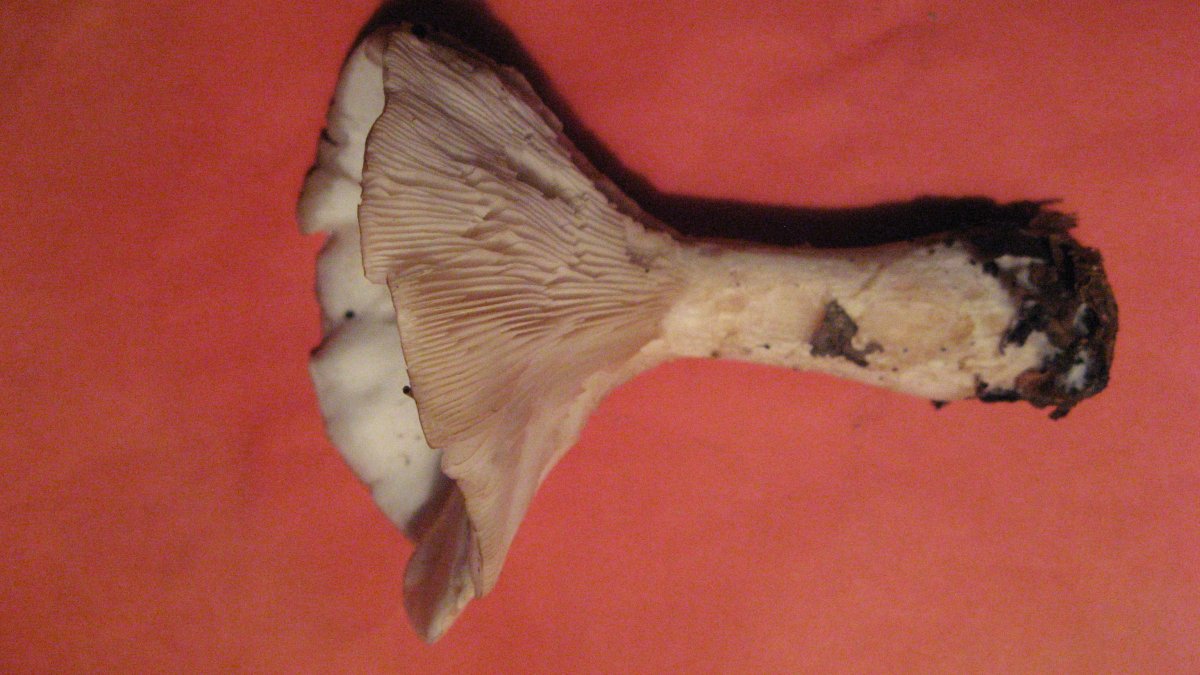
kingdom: Fungi
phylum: Basidiomycota
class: Agaricomycetes
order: Agaricales
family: Tricholomataceae
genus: Clitocybe
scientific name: Clitocybe nebularis
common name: Clouded agaric
